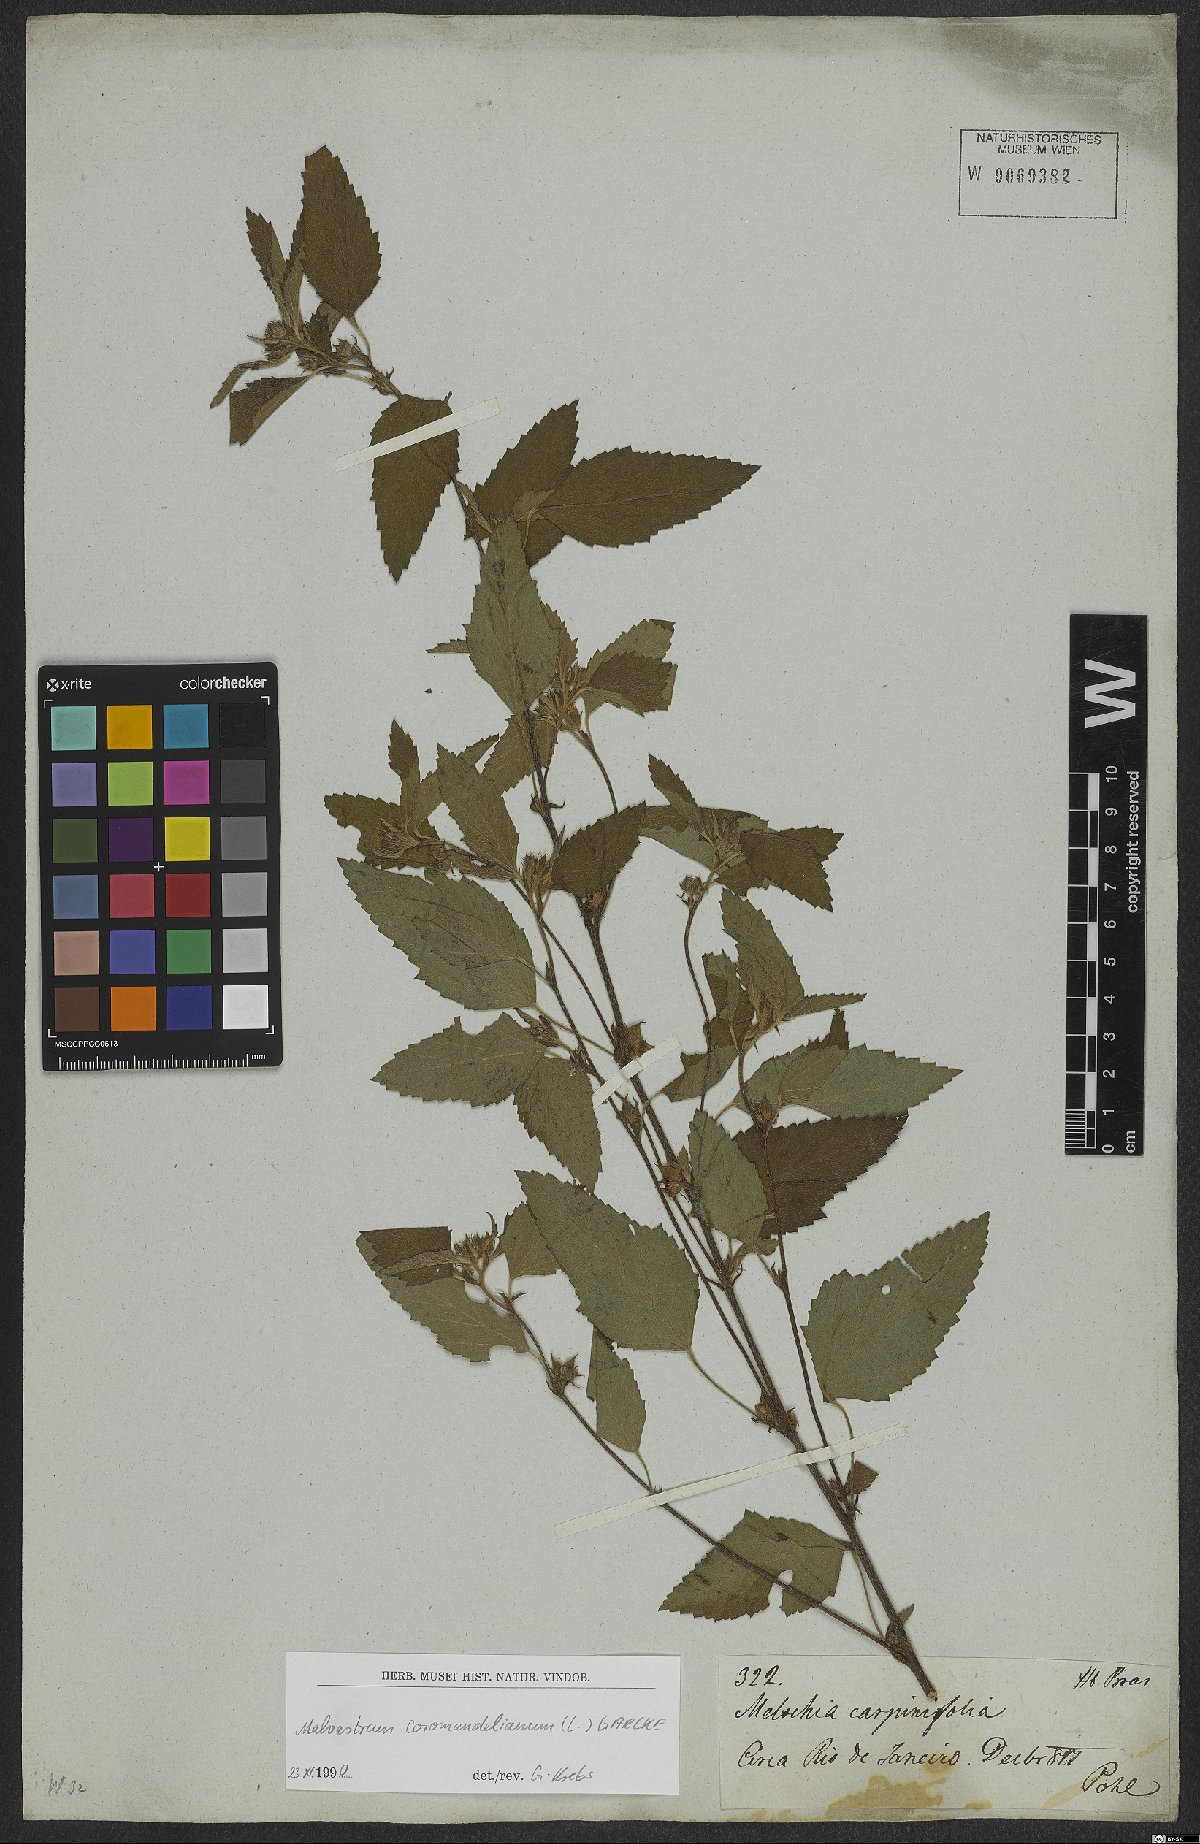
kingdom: Plantae
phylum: Tracheophyta
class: Magnoliopsida
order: Malvales
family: Malvaceae
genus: Malvastrum
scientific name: Malvastrum coromandelianum
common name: Threelobe false mallow
